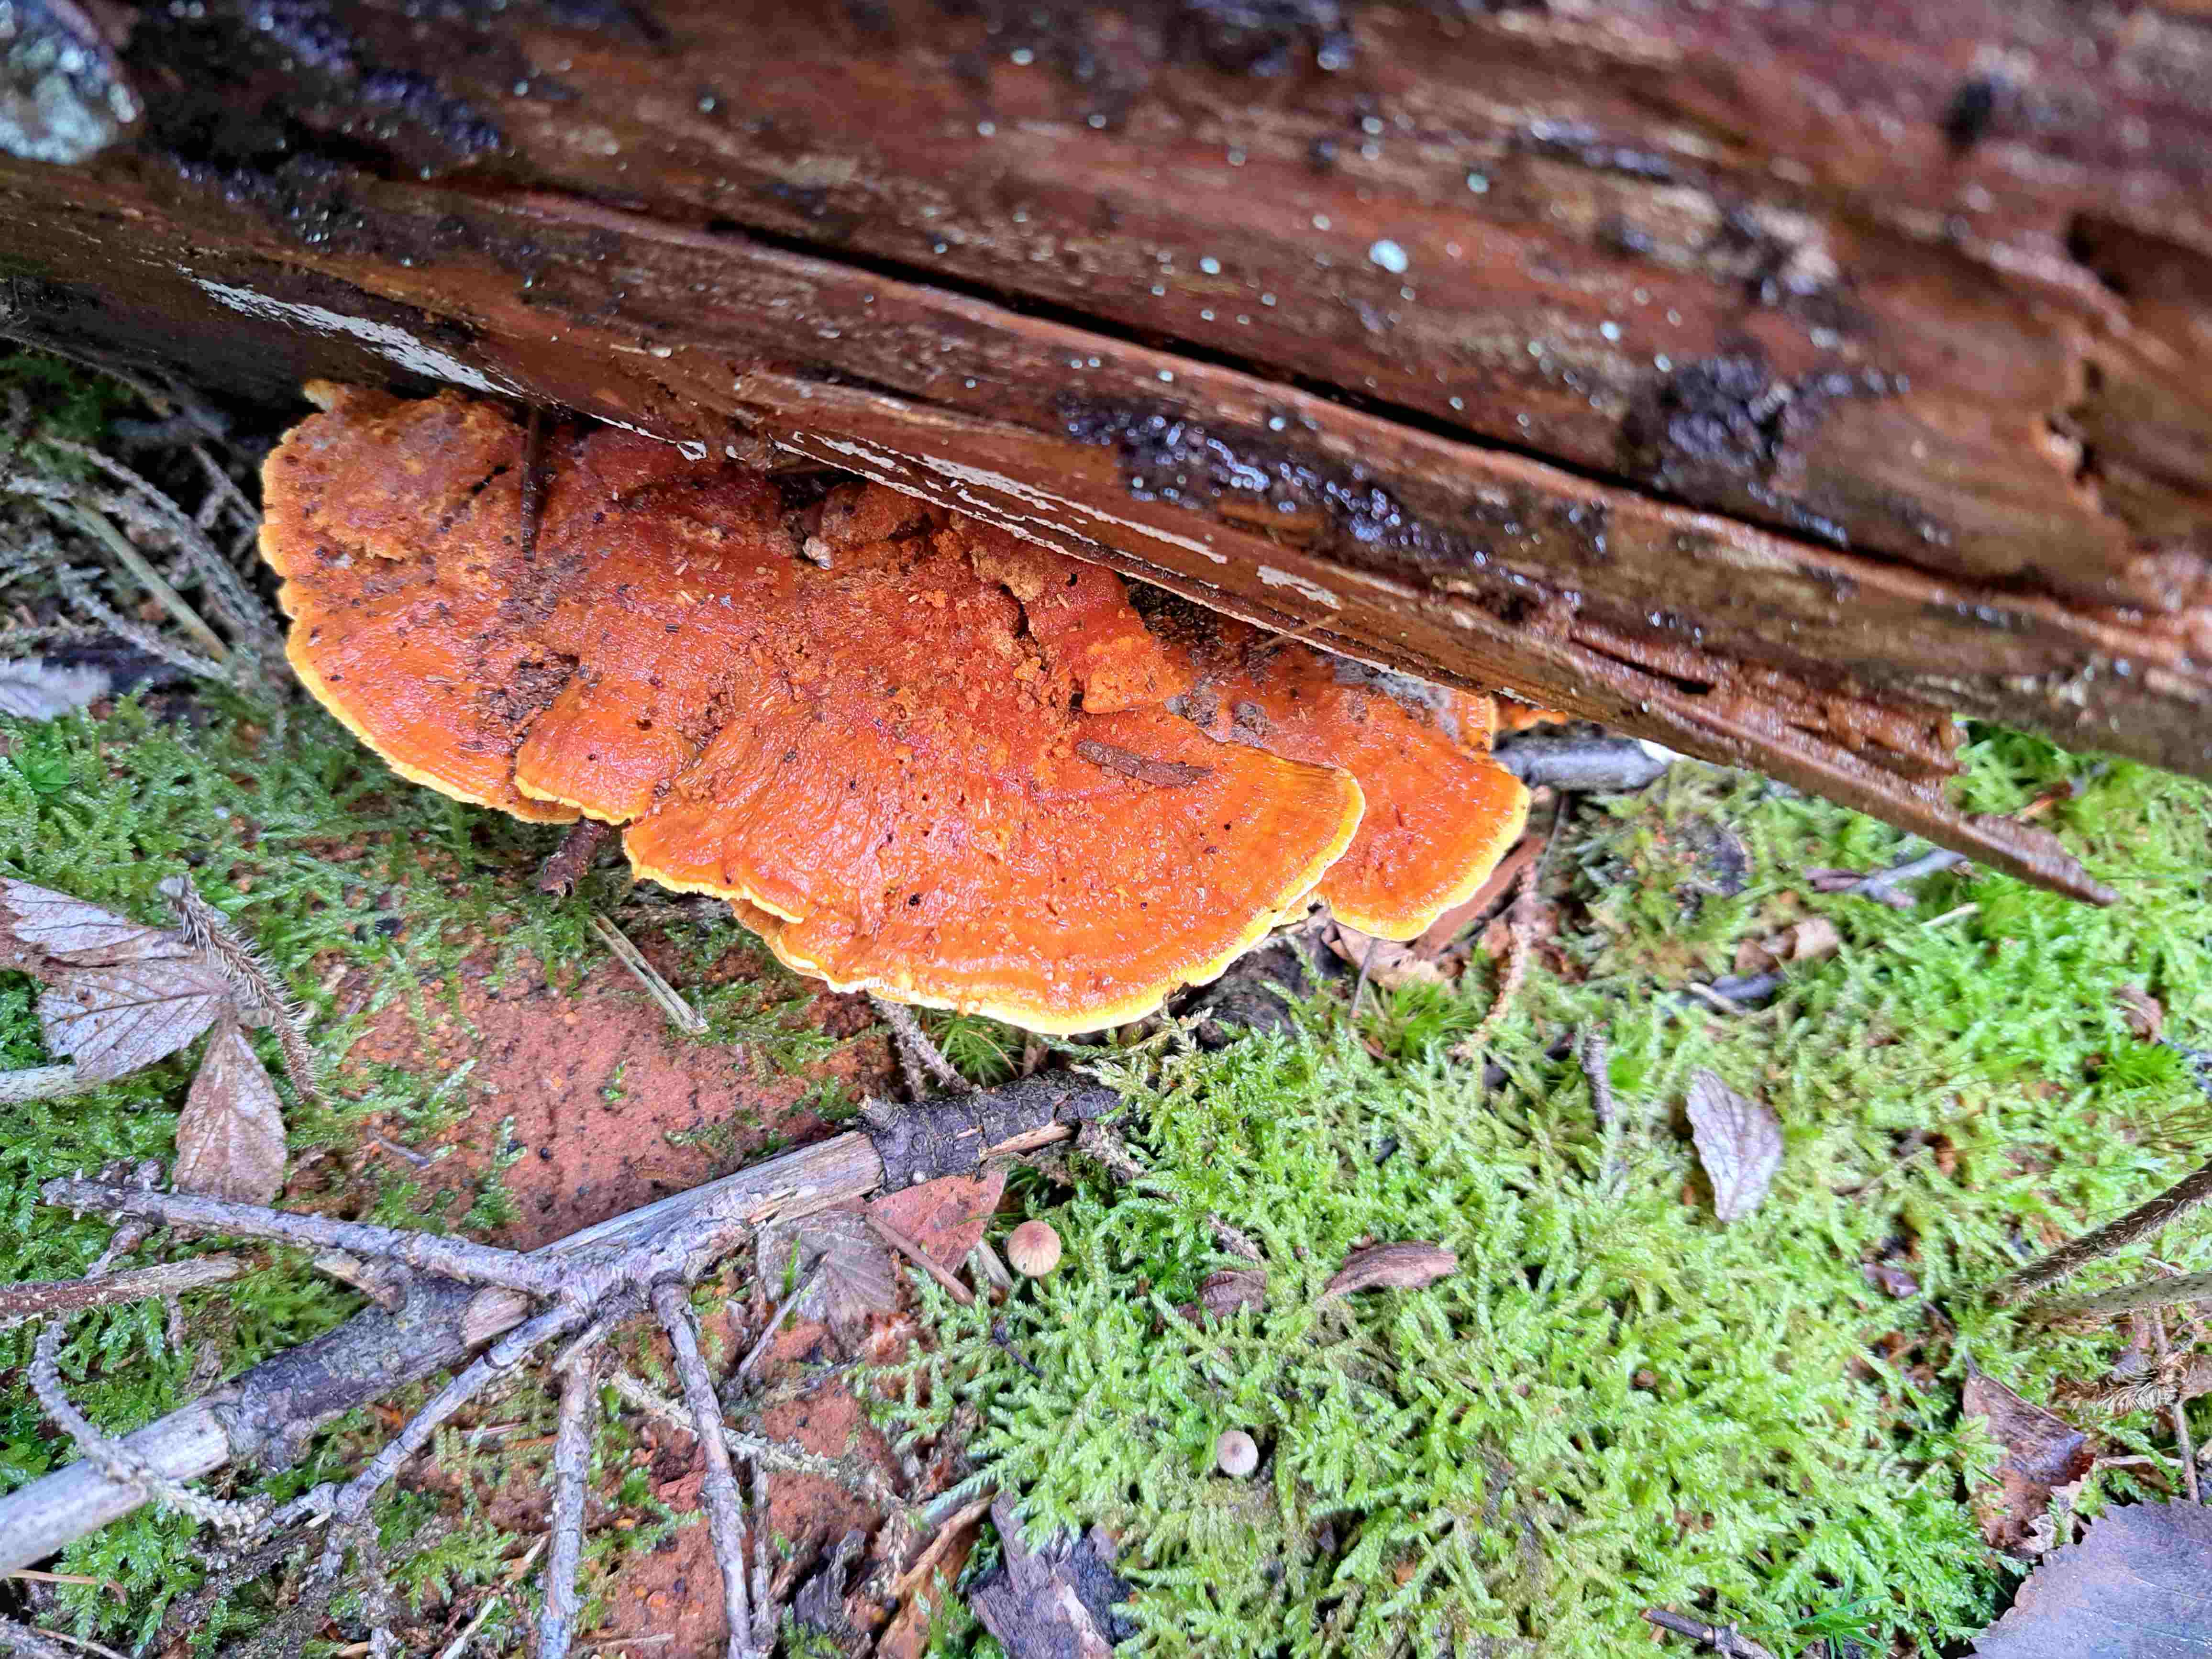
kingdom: Fungi
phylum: Basidiomycota
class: Agaricomycetes
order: Polyporales
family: Pycnoporellaceae
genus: Pycnoporellus
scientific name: Pycnoporellus fulgens
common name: flammeporesvamp
